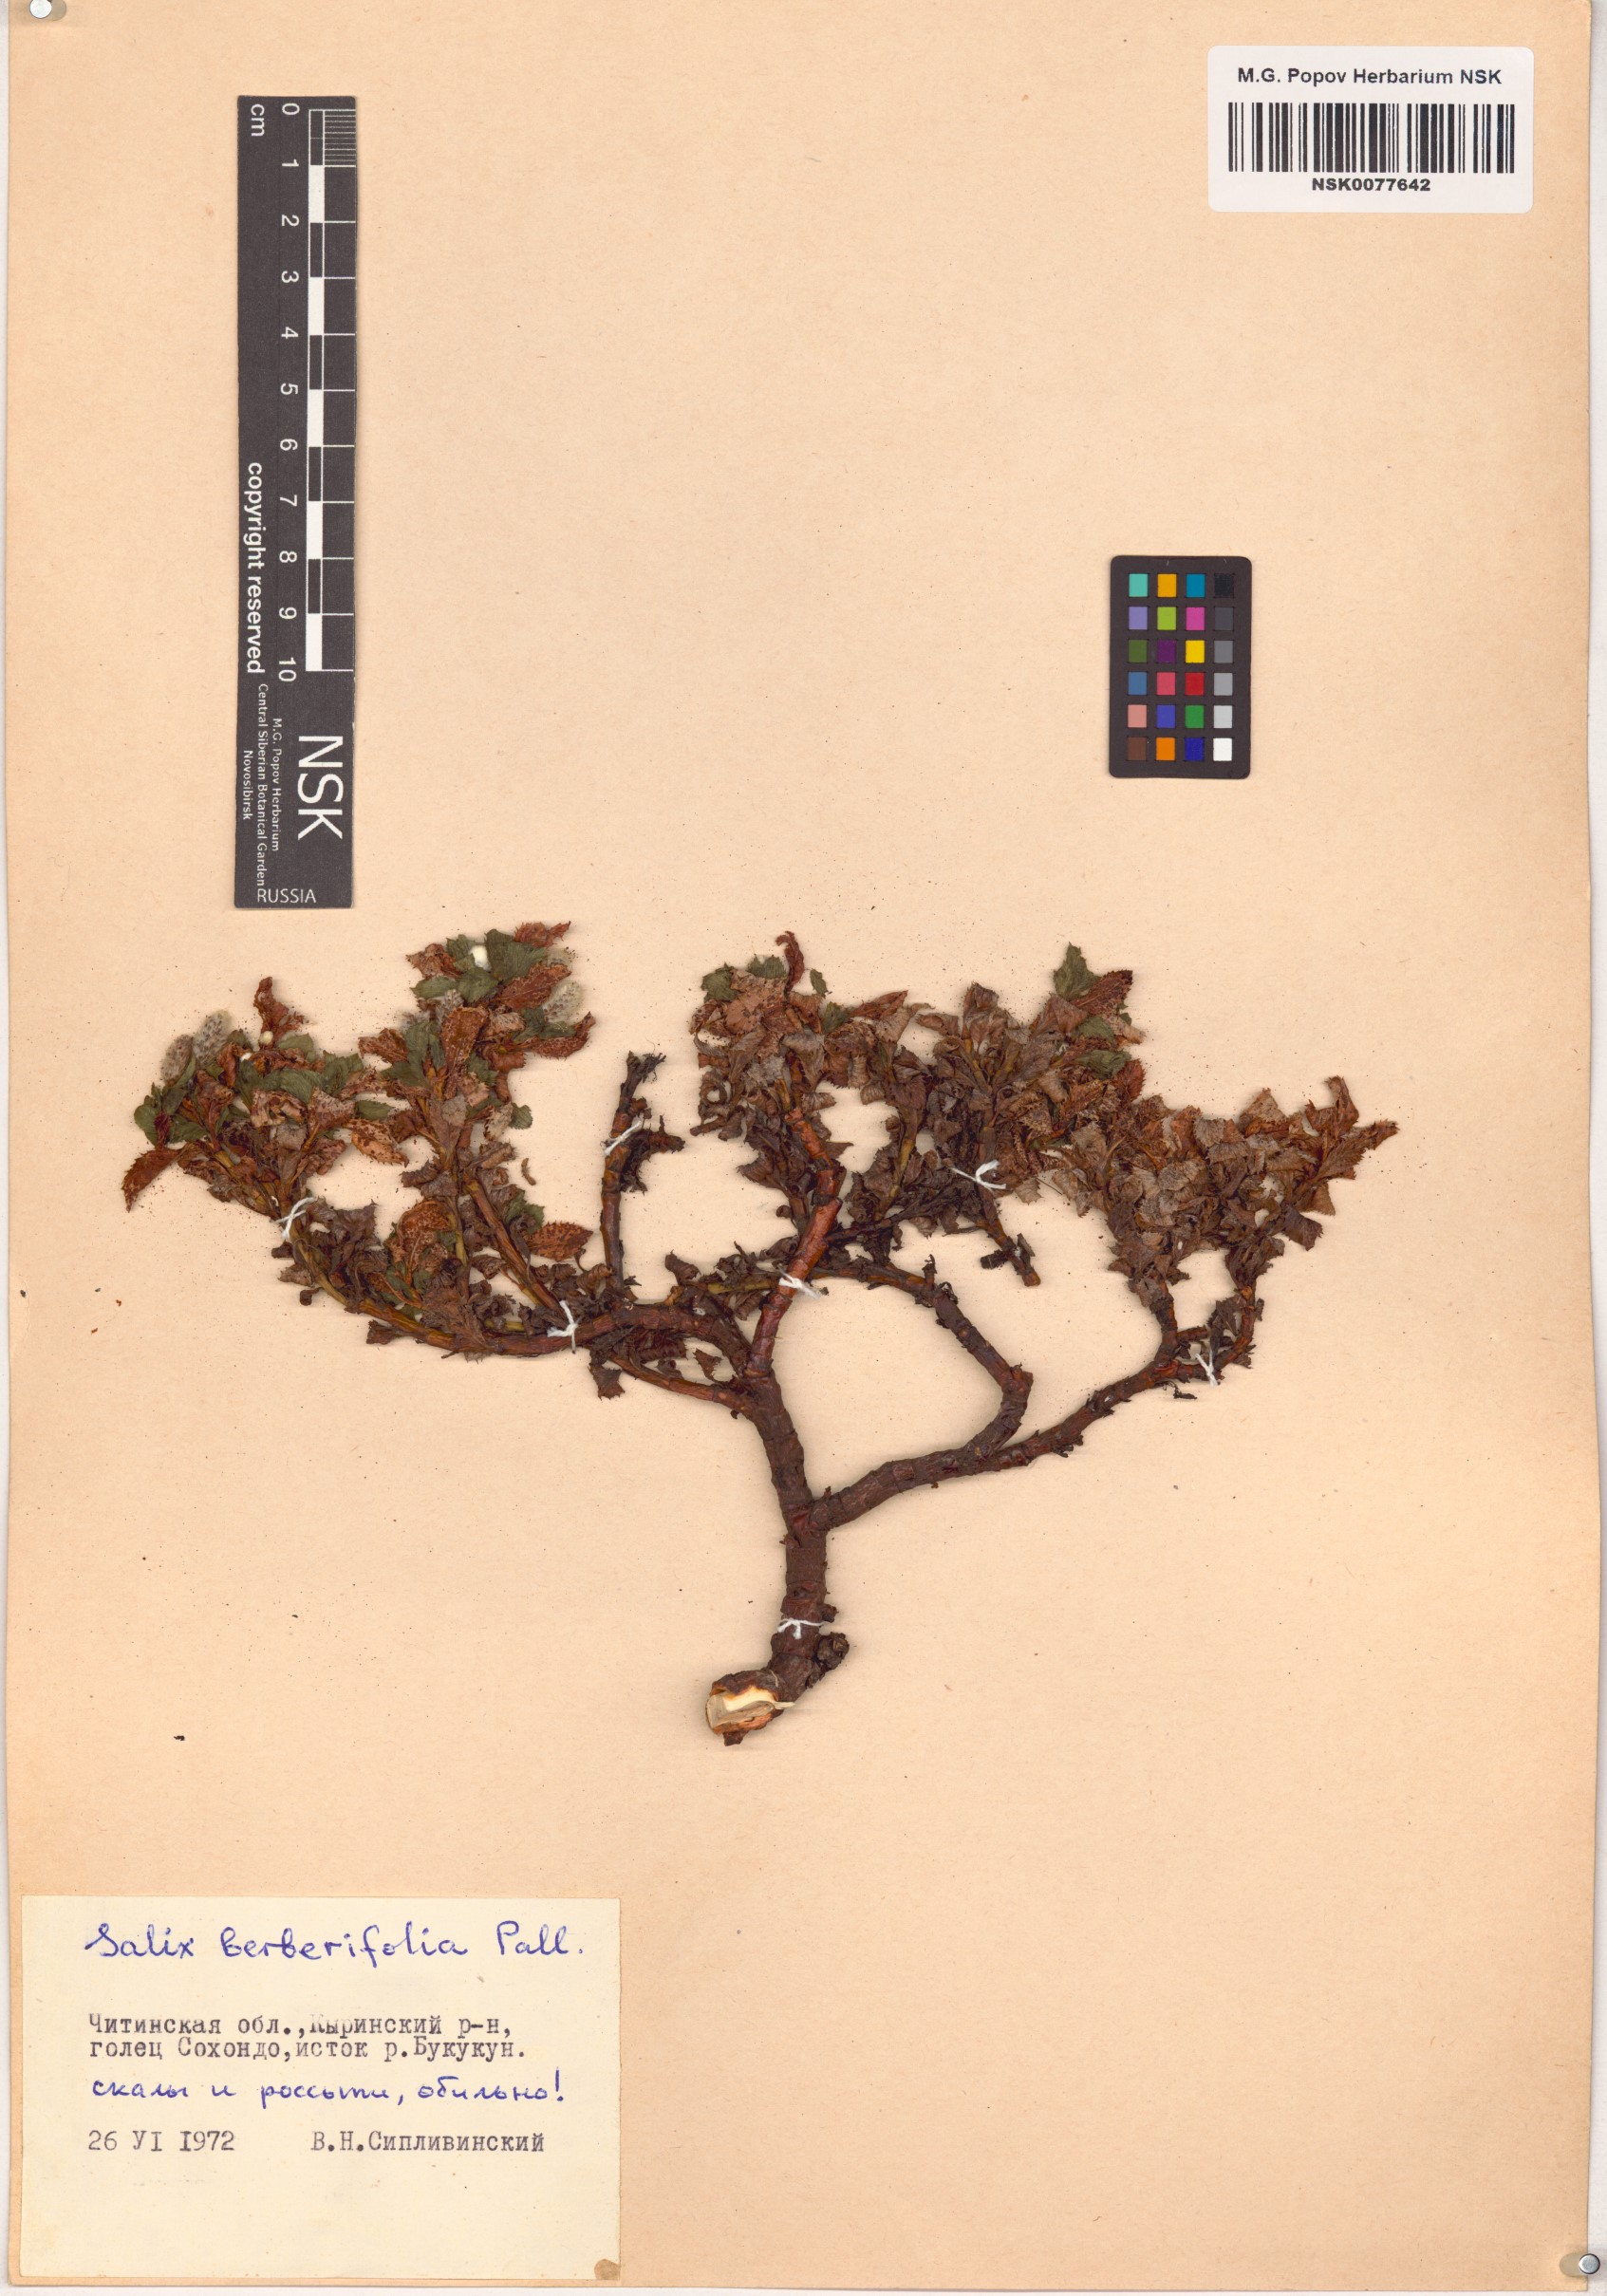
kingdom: Plantae
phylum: Tracheophyta
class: Magnoliopsida
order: Malpighiales
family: Salicaceae
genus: Salix
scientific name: Salix berberifolia
